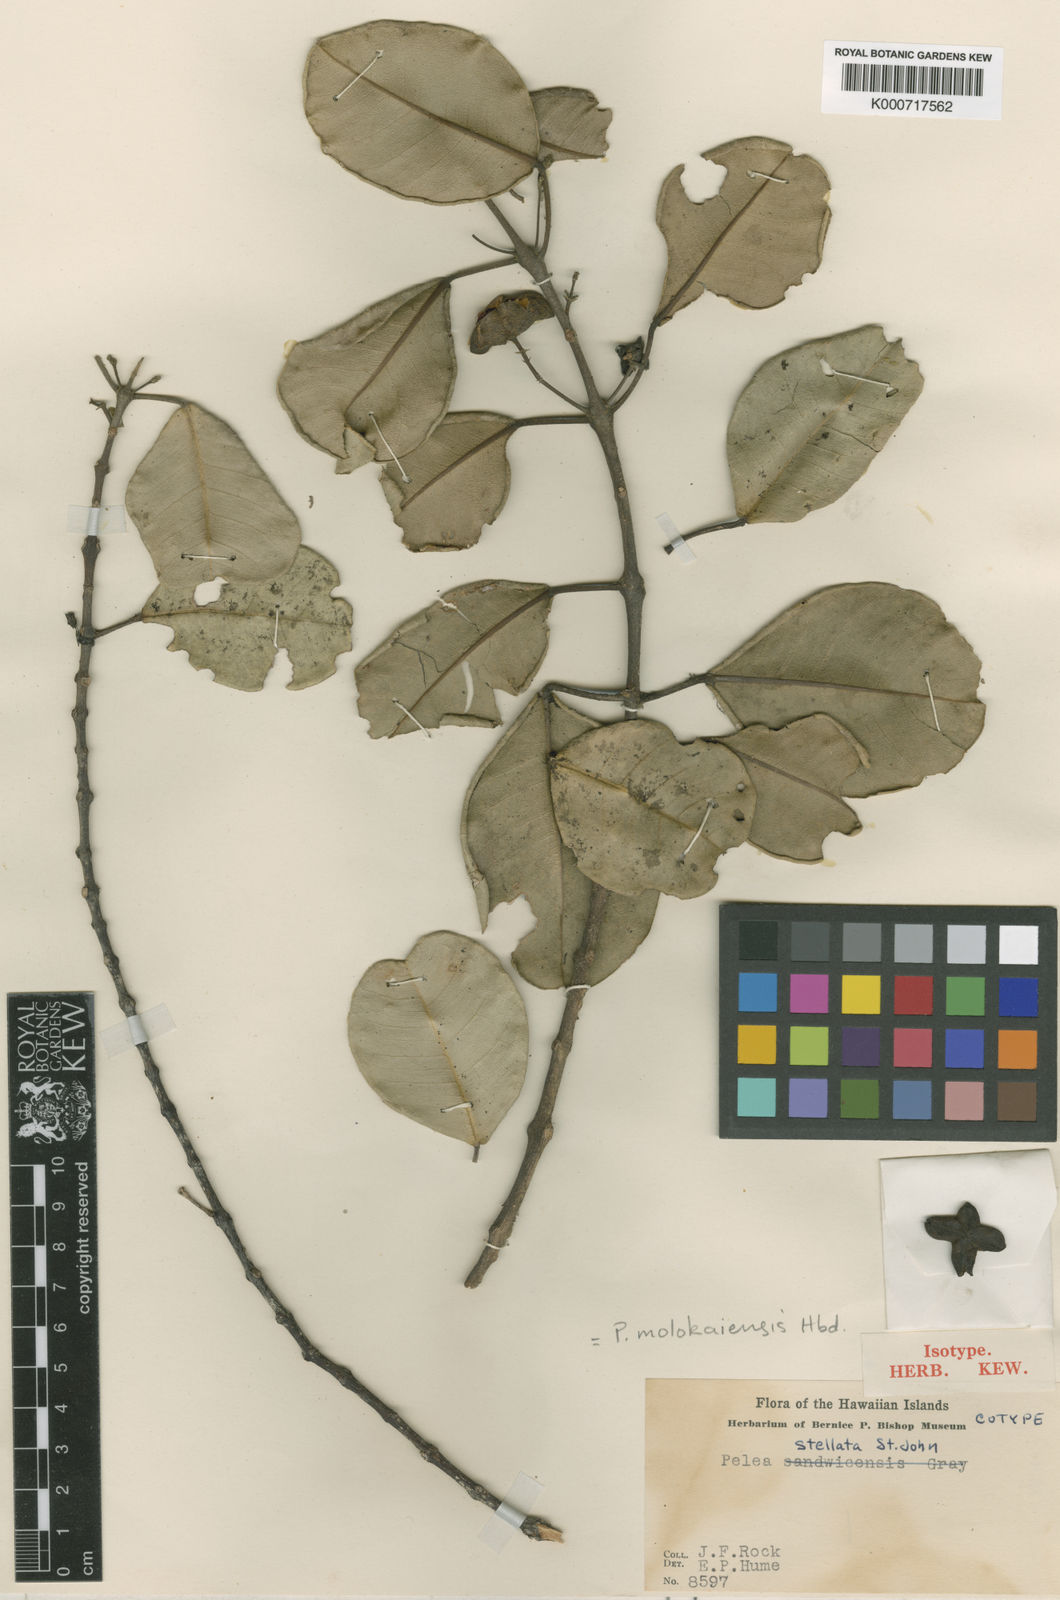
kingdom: Plantae
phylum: Tracheophyta
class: Magnoliopsida
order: Sapindales
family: Rutaceae
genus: Melicope
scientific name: Melicope molokaiensis
